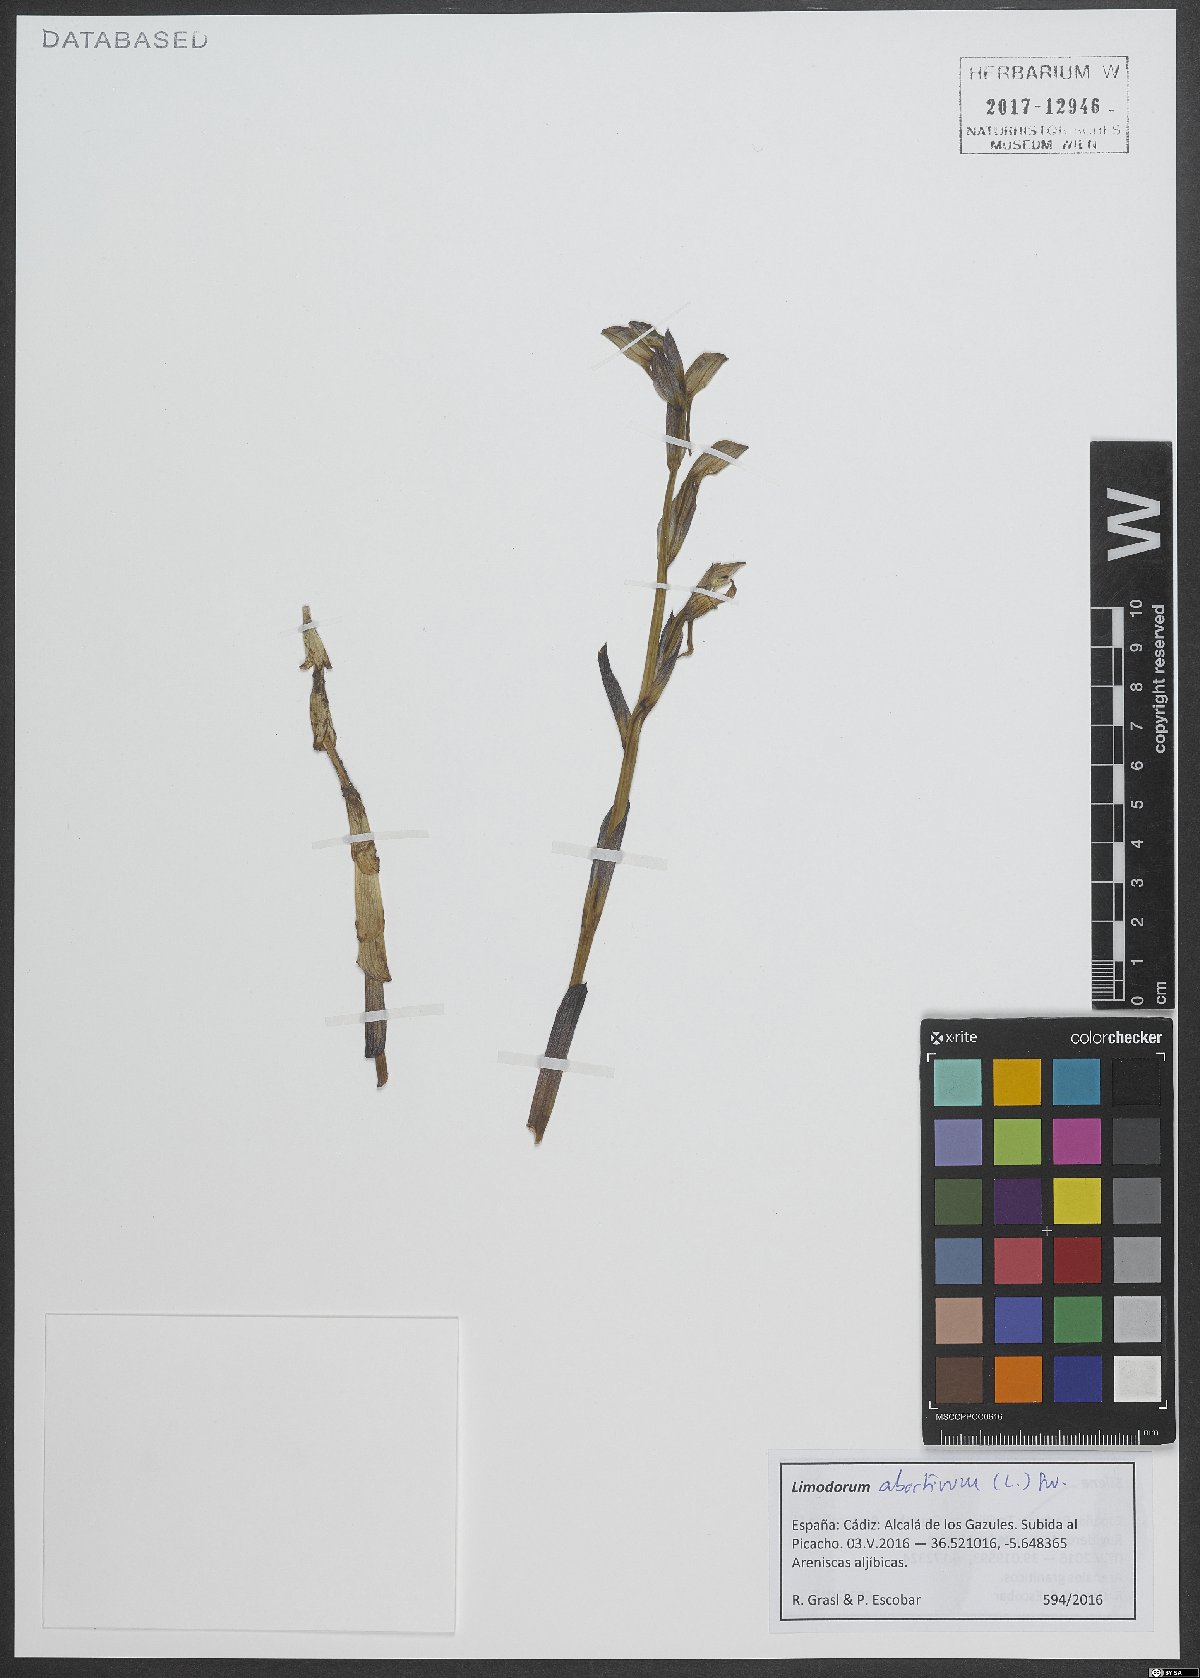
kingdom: Plantae
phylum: Tracheophyta
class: Liliopsida
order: Asparagales
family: Orchidaceae
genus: Limodorum
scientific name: Limodorum abortivum
